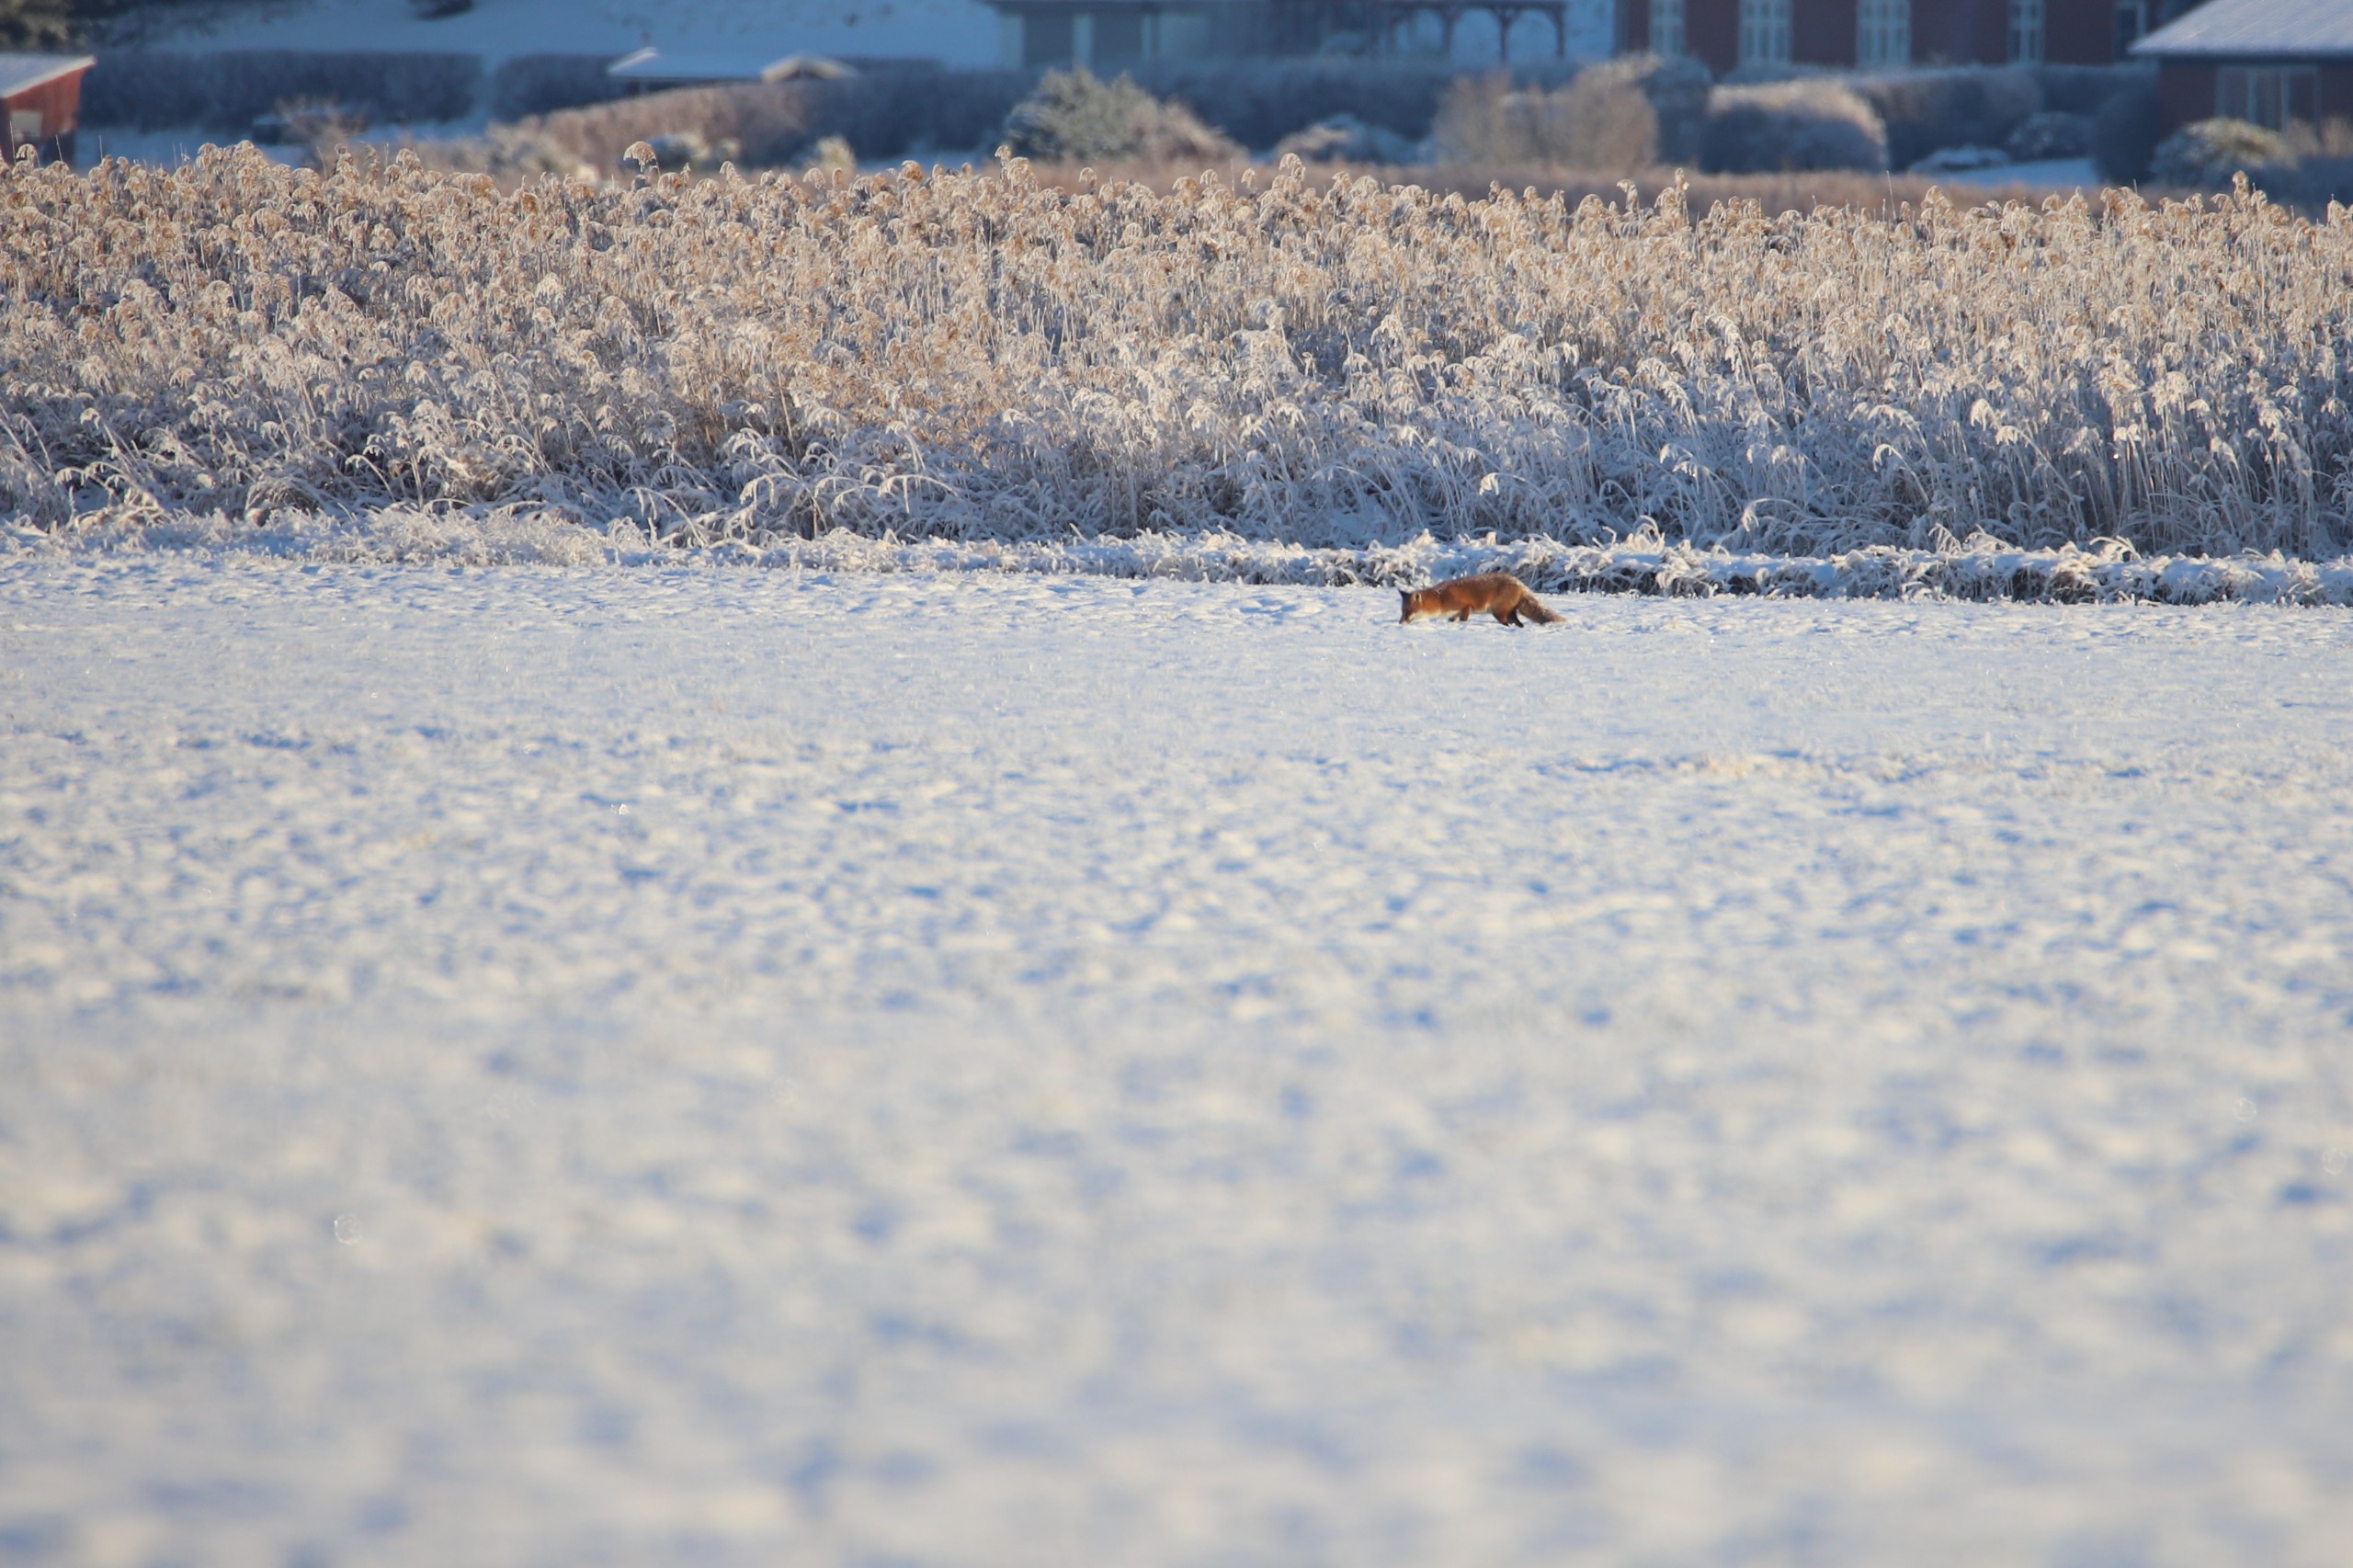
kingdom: Animalia
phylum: Chordata
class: Mammalia
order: Carnivora
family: Canidae
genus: Vulpes
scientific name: Vulpes vulpes
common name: Ræv
